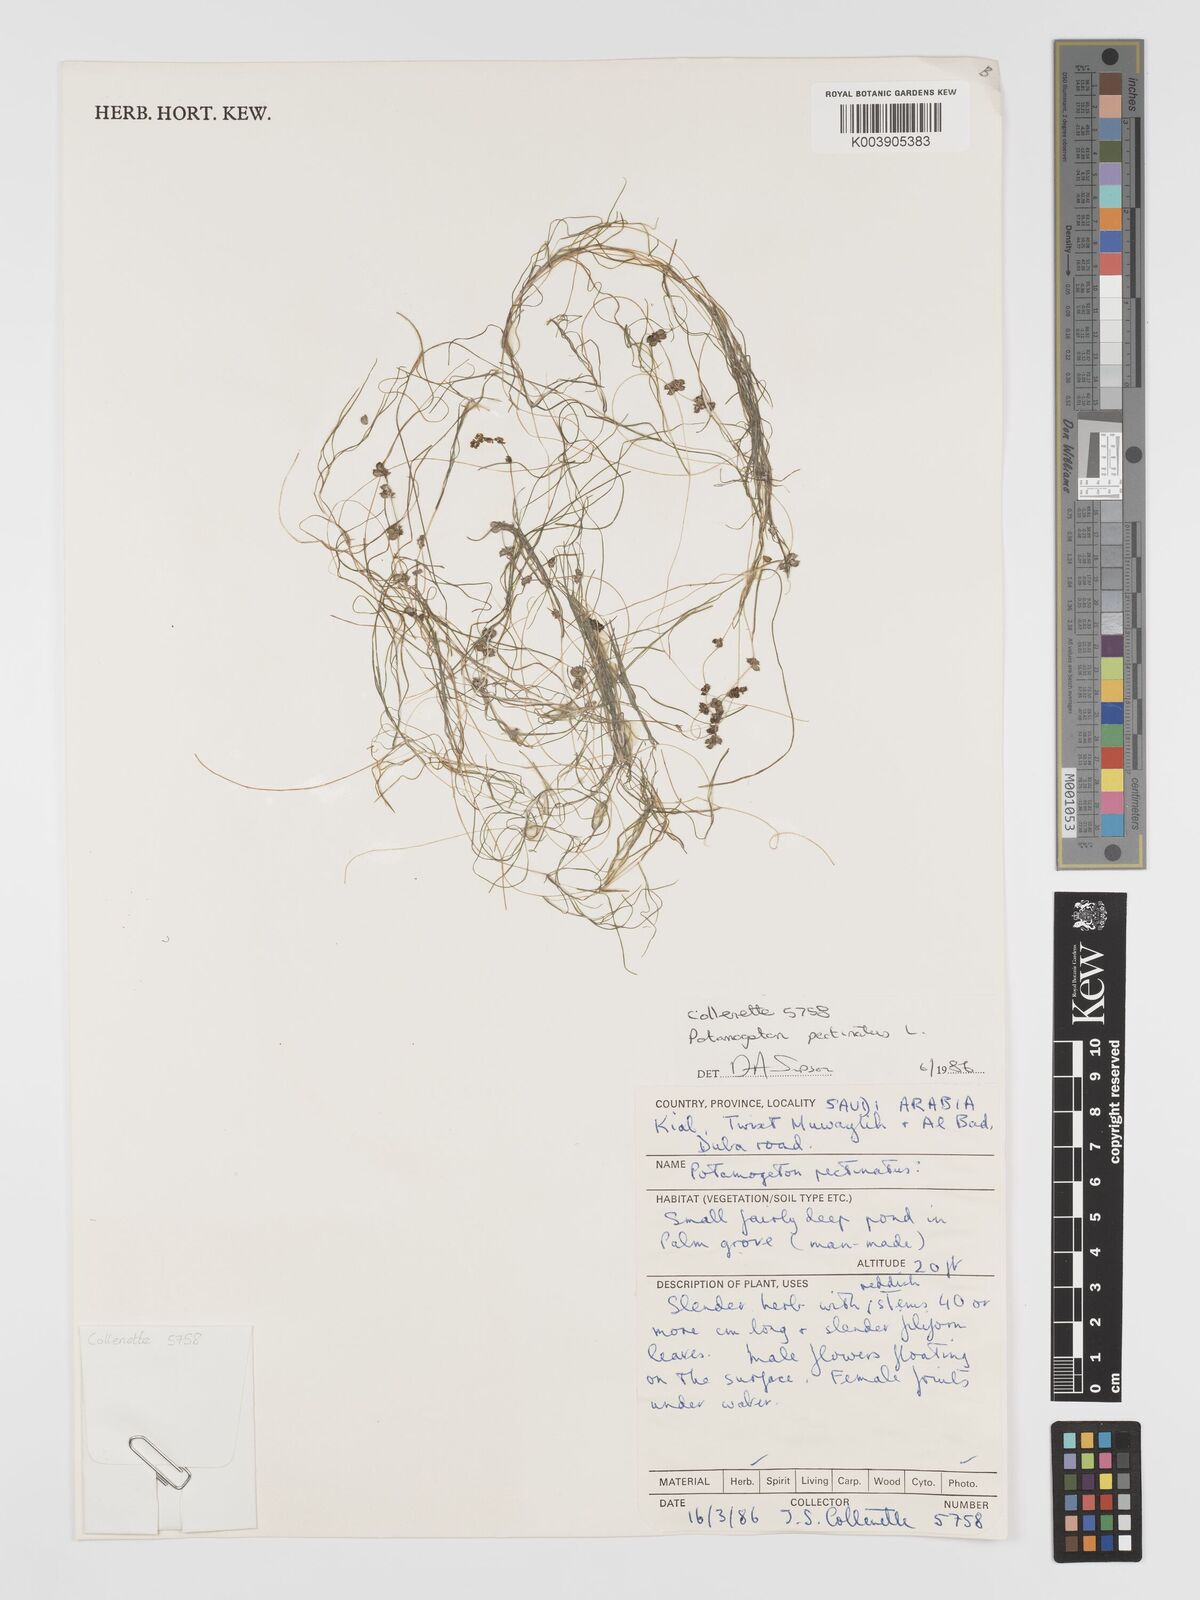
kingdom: Plantae
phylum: Tracheophyta
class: Liliopsida
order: Alismatales
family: Potamogetonaceae
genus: Stuckenia
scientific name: Stuckenia pectinata
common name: Sago pondweed
